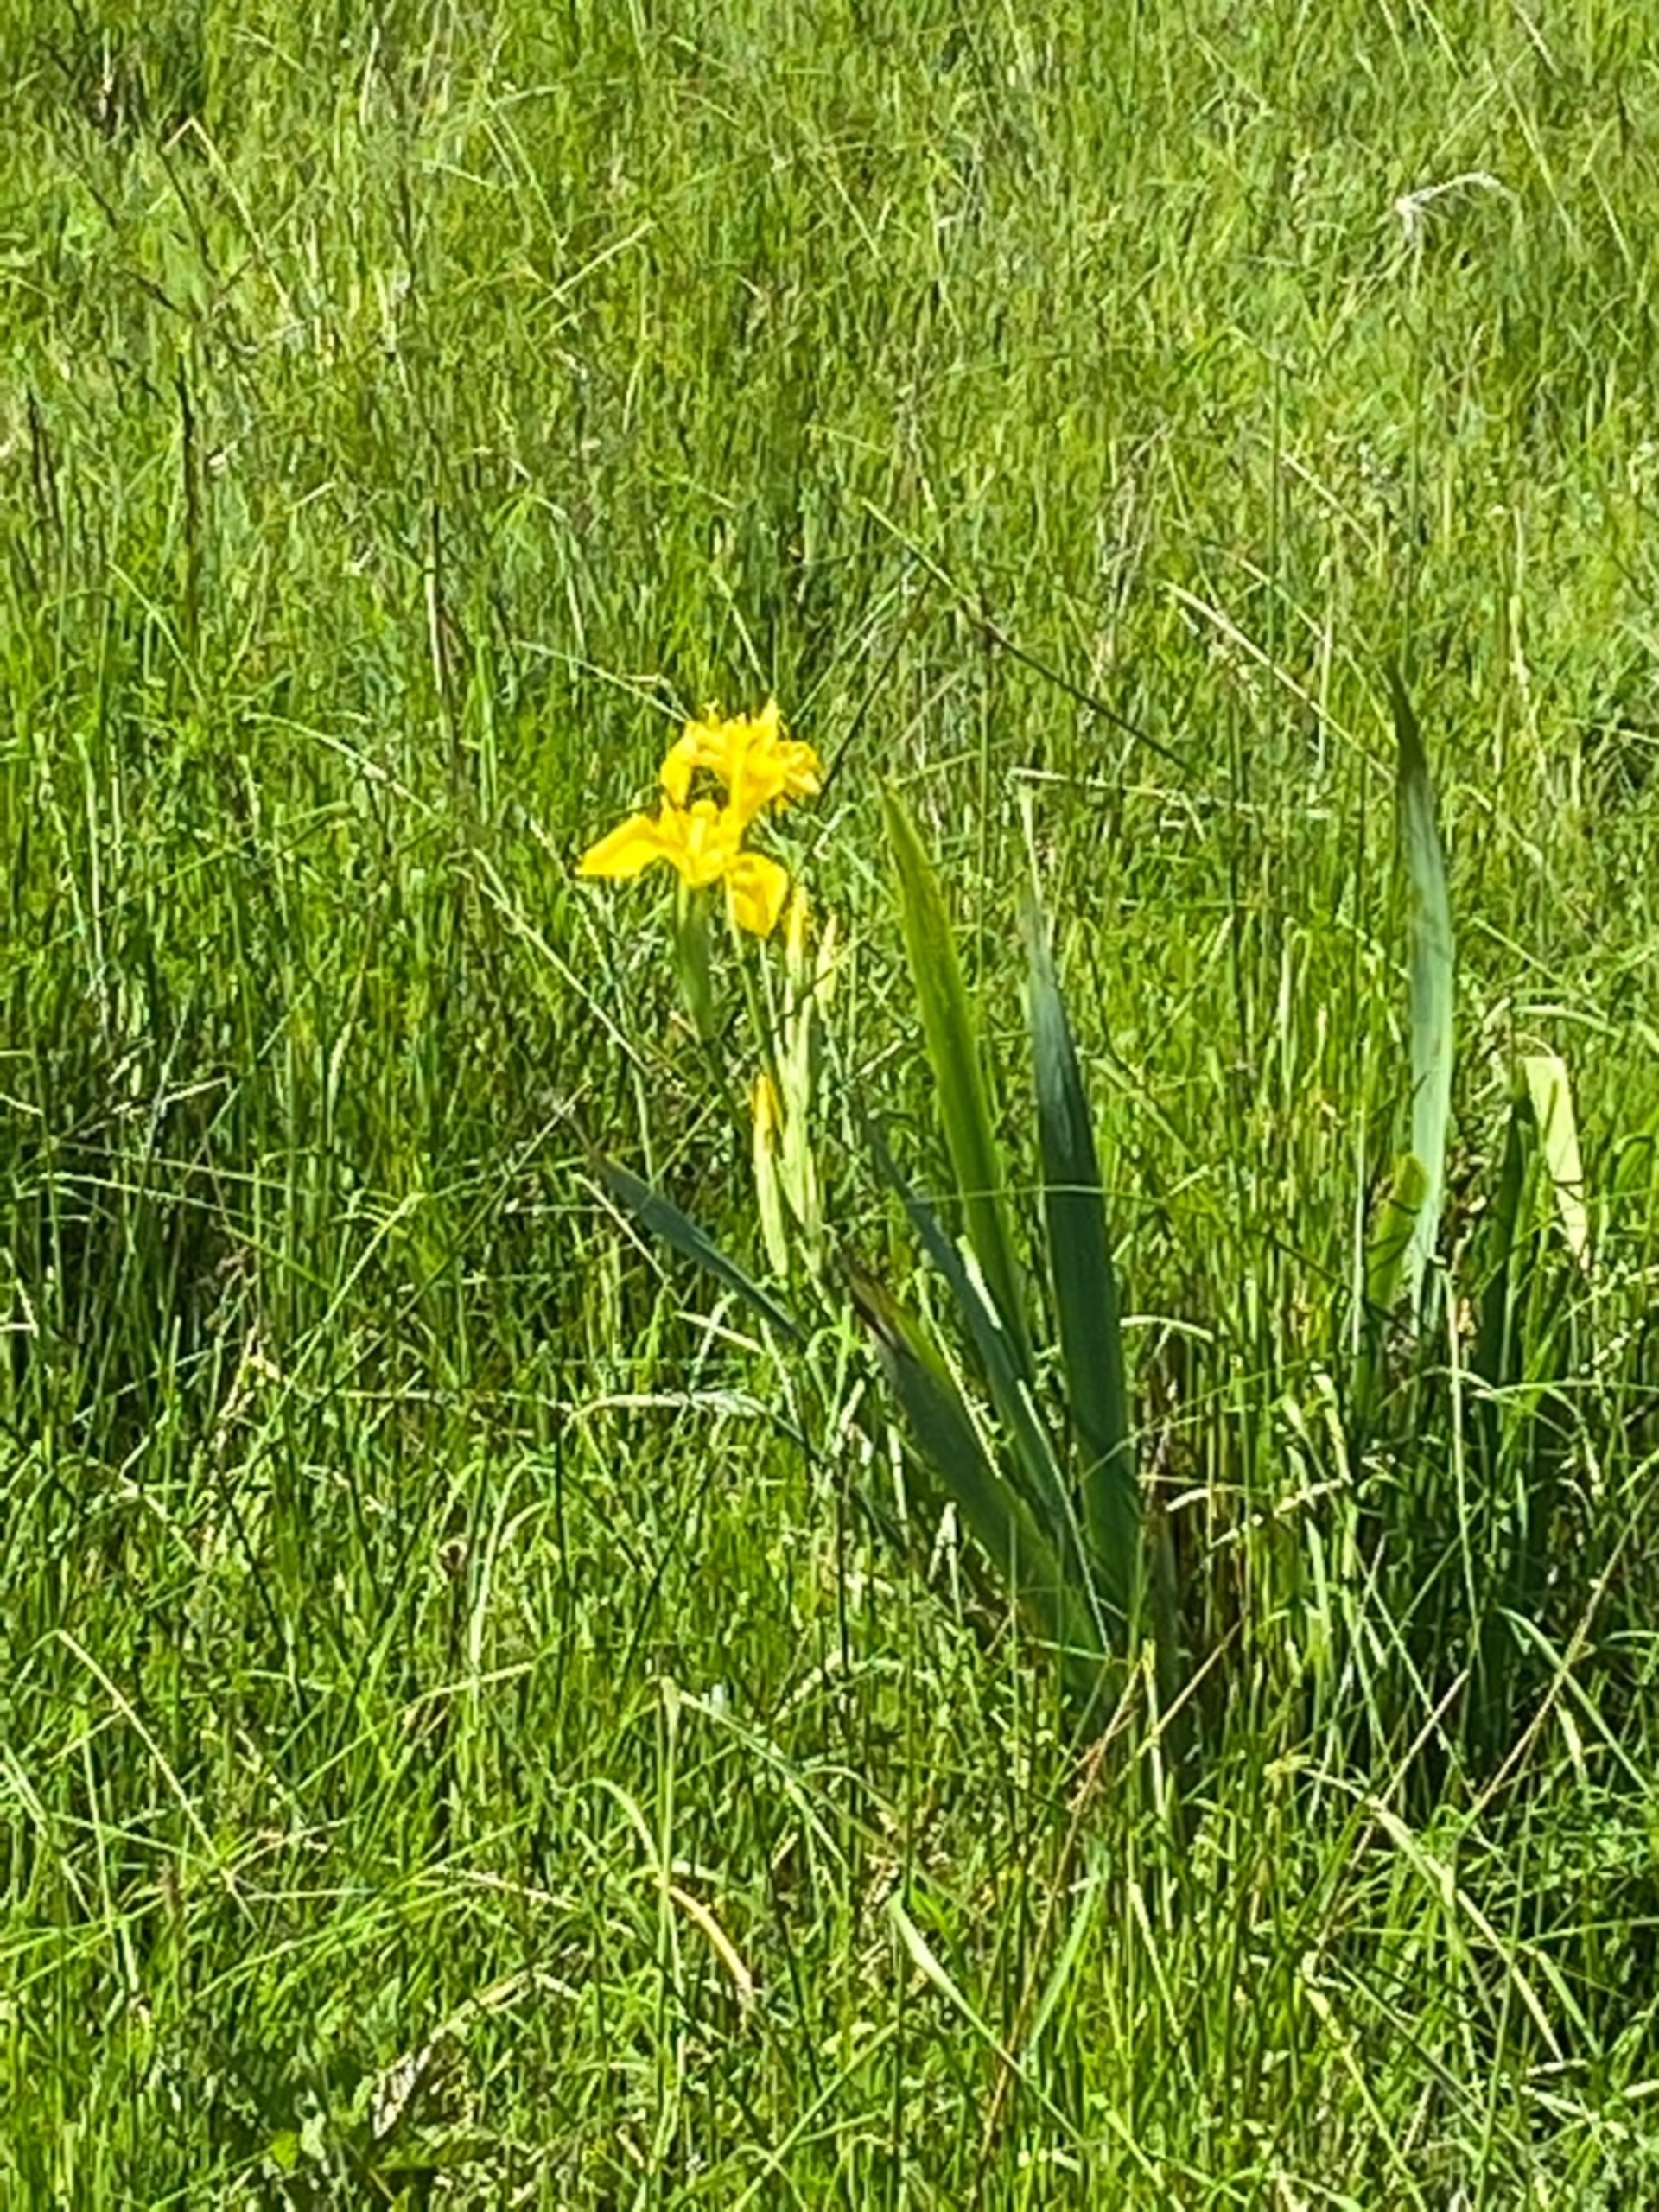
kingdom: Plantae
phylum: Tracheophyta
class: Liliopsida
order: Asparagales
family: Iridaceae
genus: Iris
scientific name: Iris pseudacorus
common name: Gul iris
